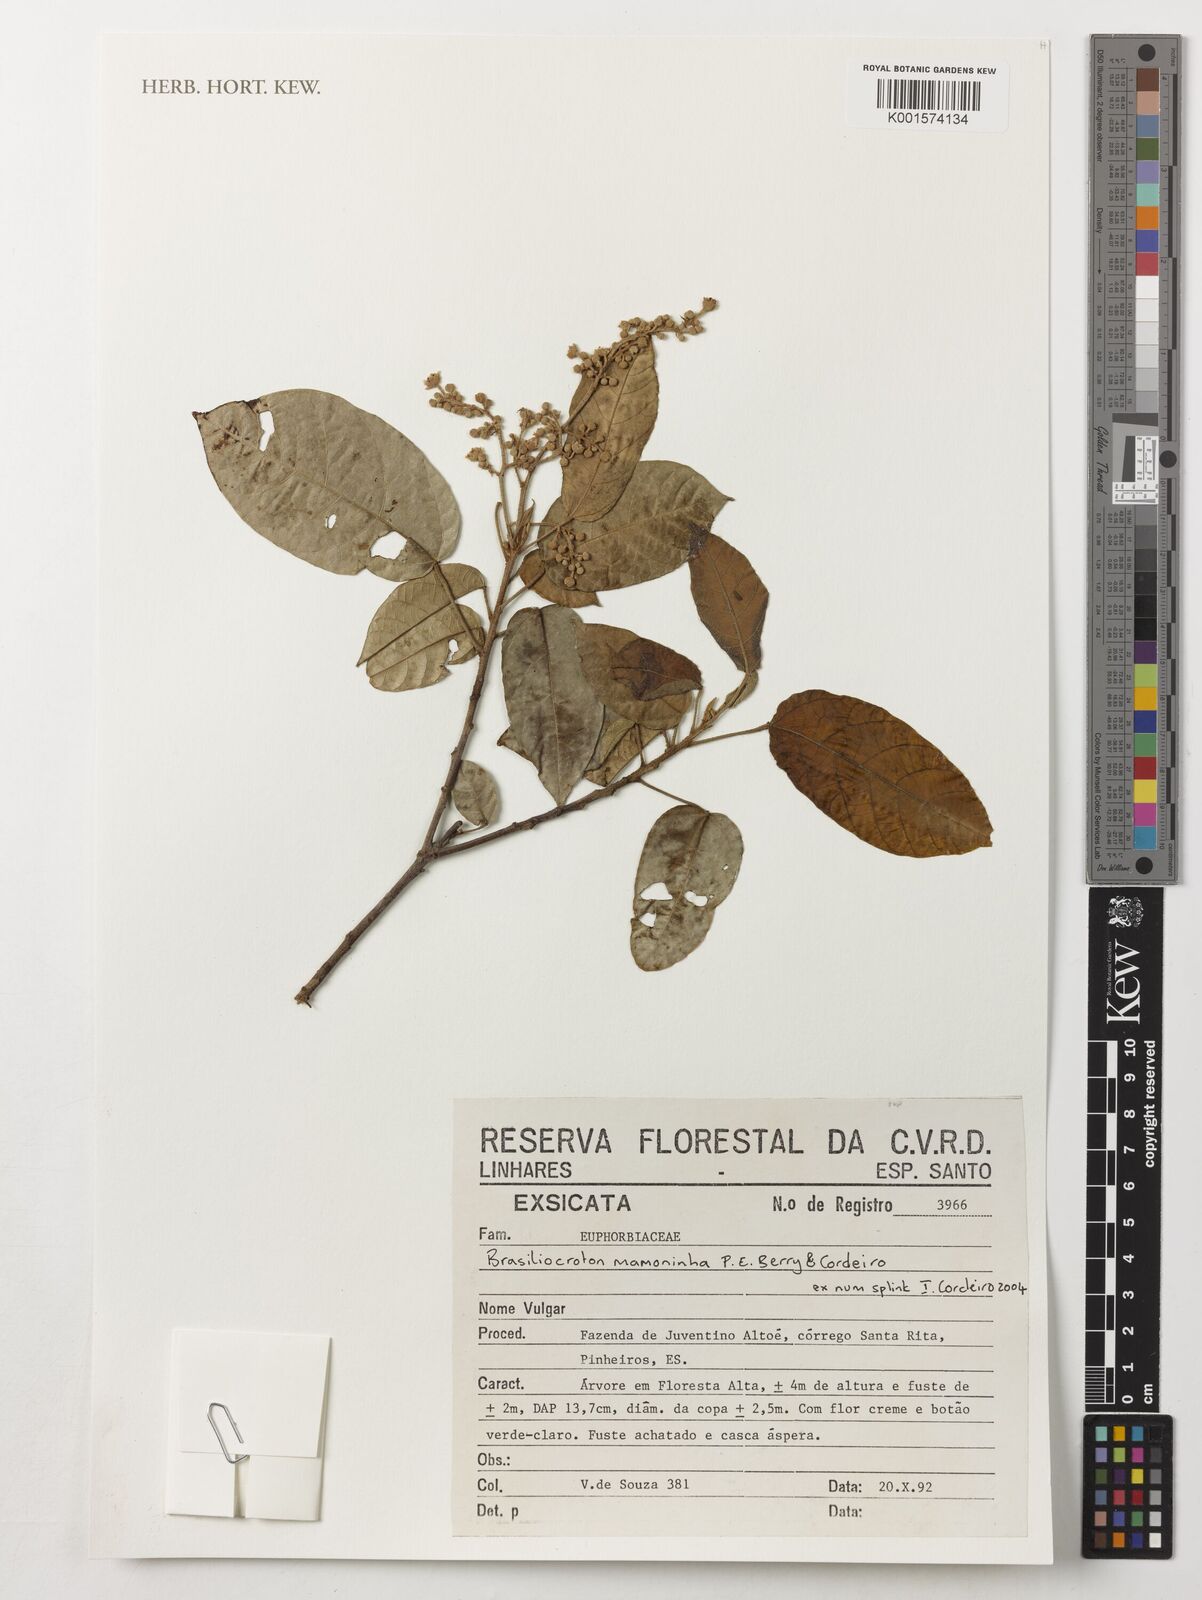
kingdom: Plantae
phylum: Tracheophyta
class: Magnoliopsida
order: Malpighiales
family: Euphorbiaceae
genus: Brasiliocroton
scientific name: Brasiliocroton mamoninha
